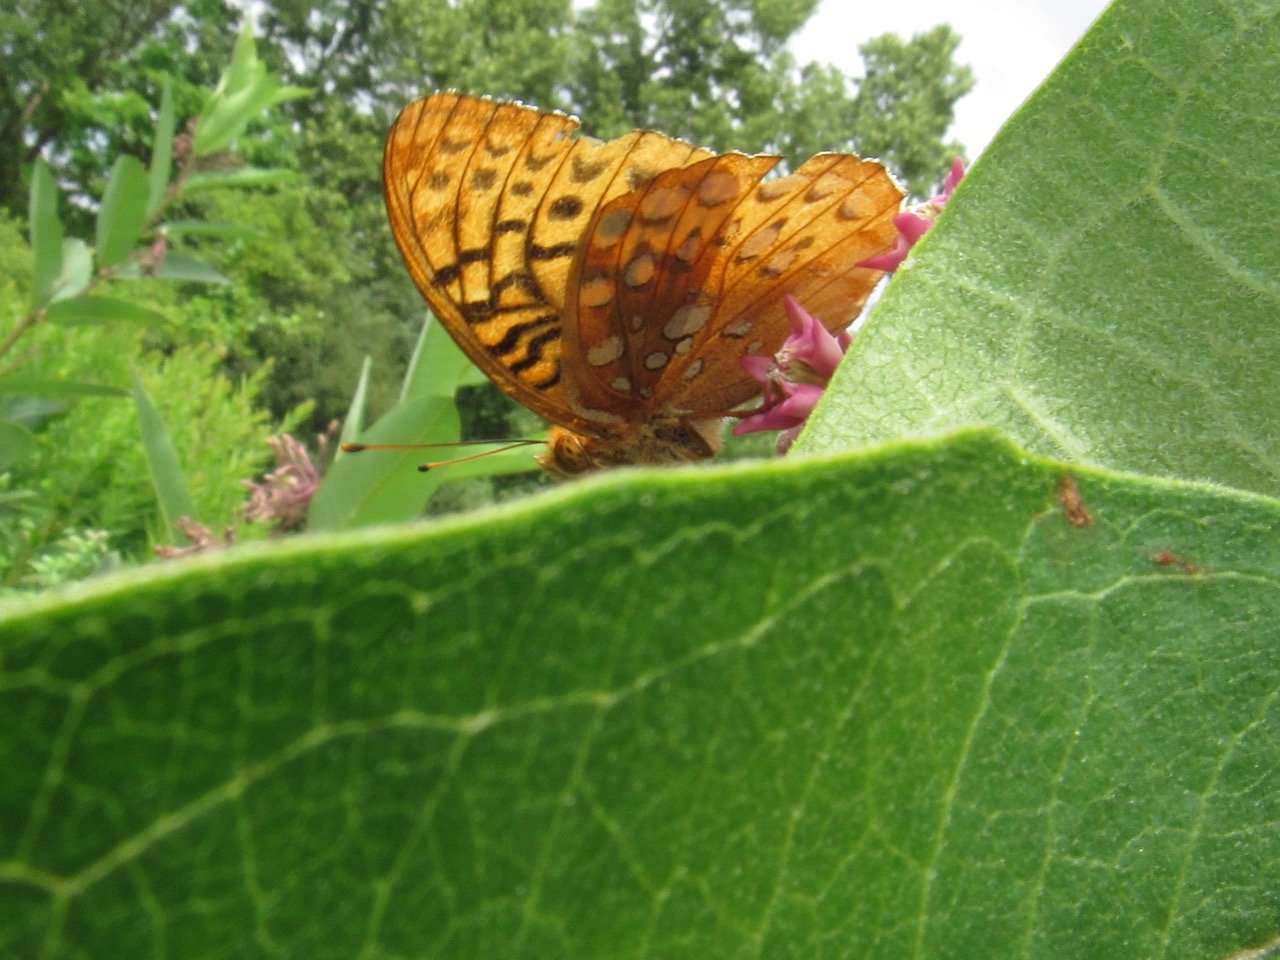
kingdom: Animalia
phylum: Arthropoda
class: Insecta
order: Lepidoptera
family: Nymphalidae
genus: Speyeria
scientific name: Speyeria aphrodite
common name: Aphrodite Fritillary
